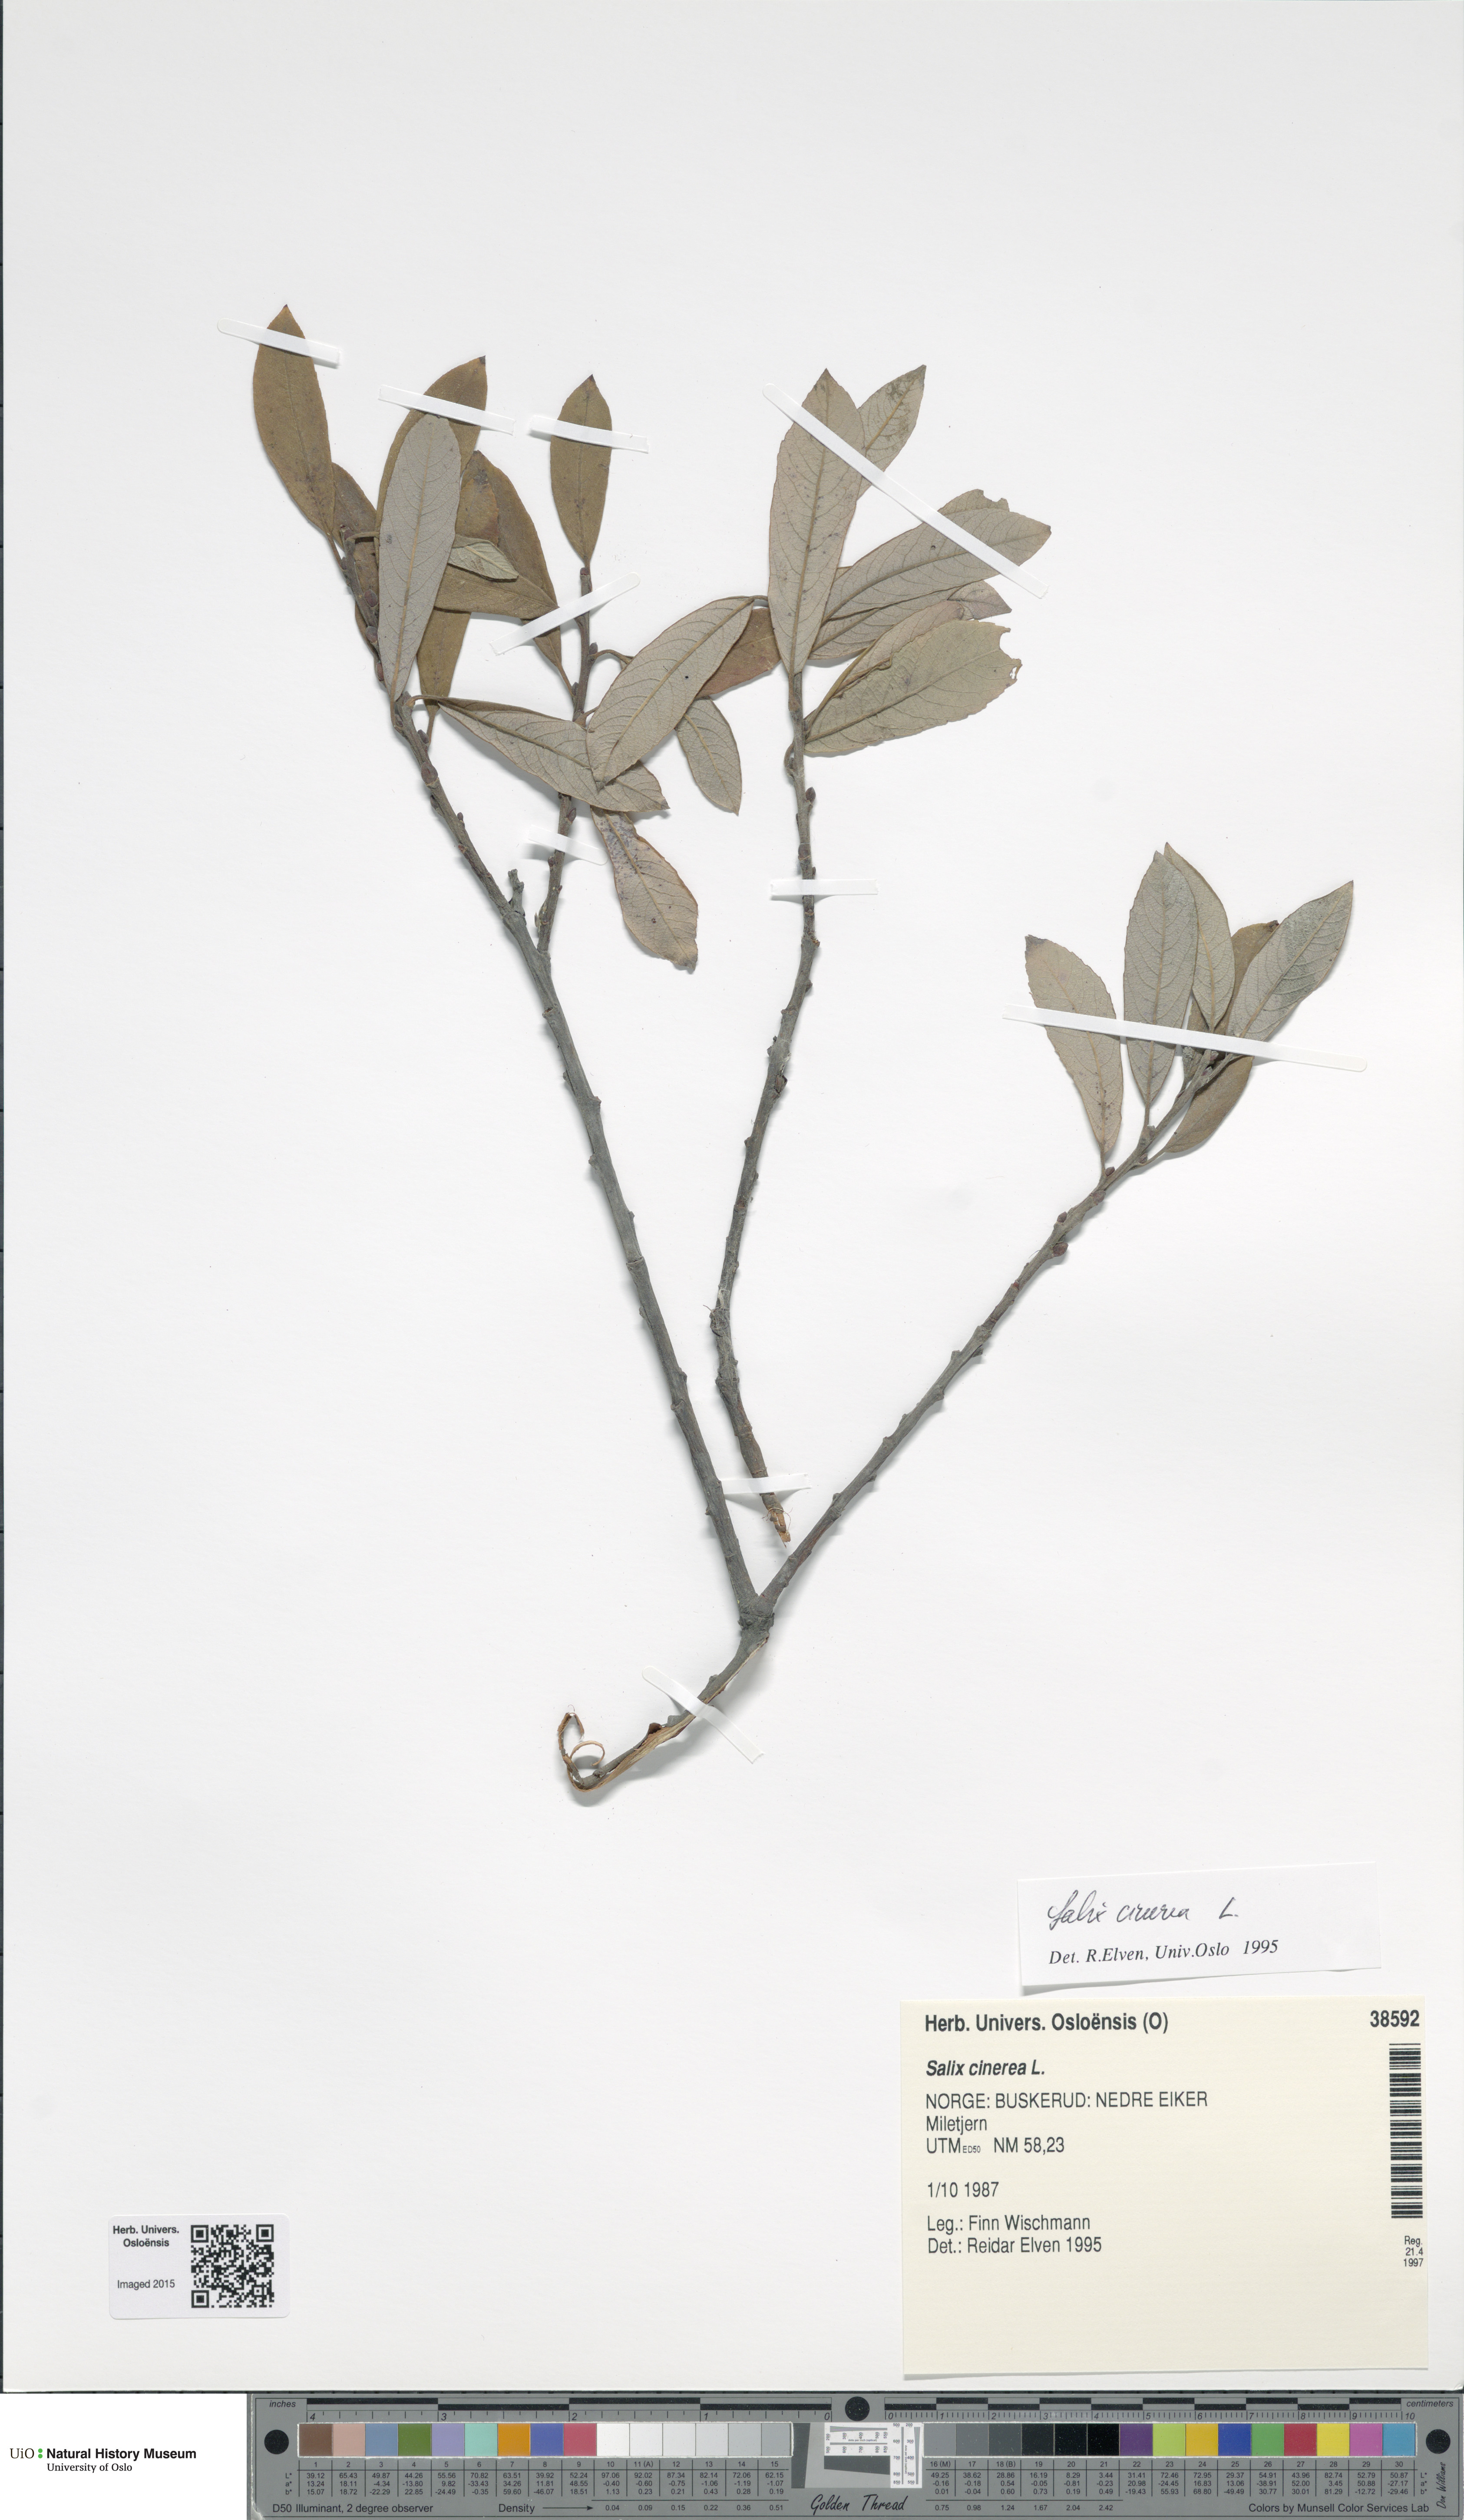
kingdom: Plantae
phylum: Tracheophyta
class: Magnoliopsida
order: Malpighiales
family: Salicaceae
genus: Salix
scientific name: Salix cinerea
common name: Common sallow
